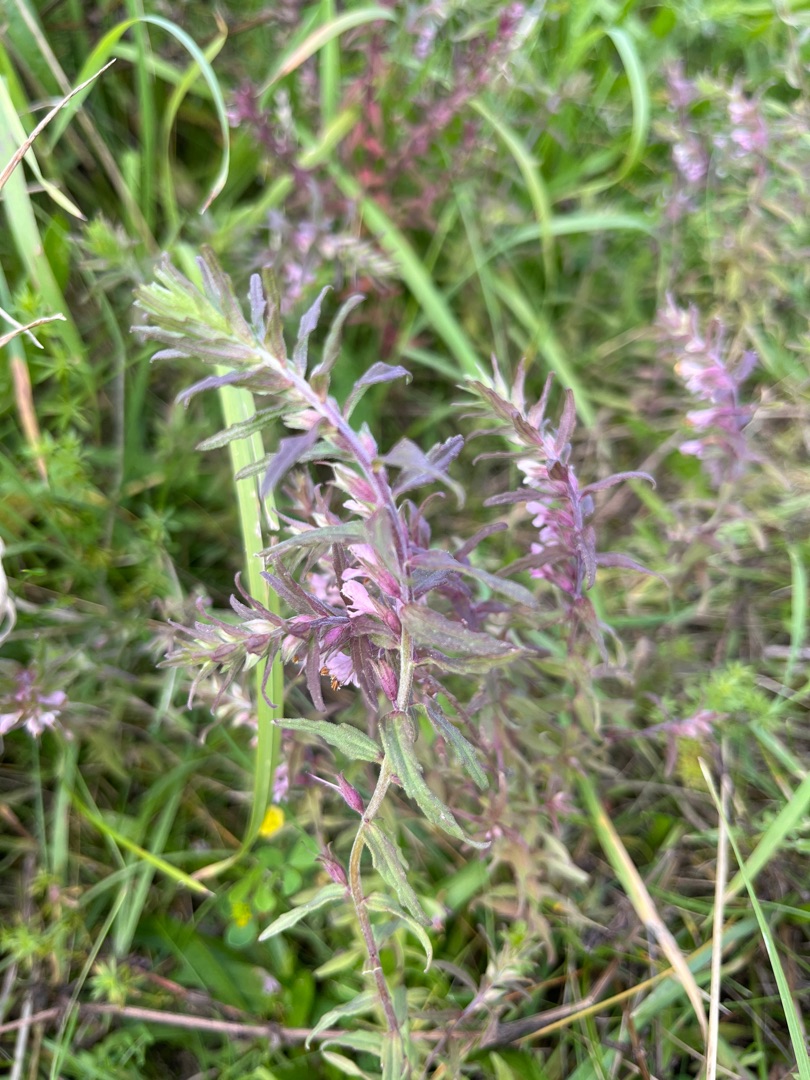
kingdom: Plantae
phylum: Tracheophyta
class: Magnoliopsida
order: Lamiales
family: Orobanchaceae
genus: Odontites
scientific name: Odontites
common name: Rødtopslægten
